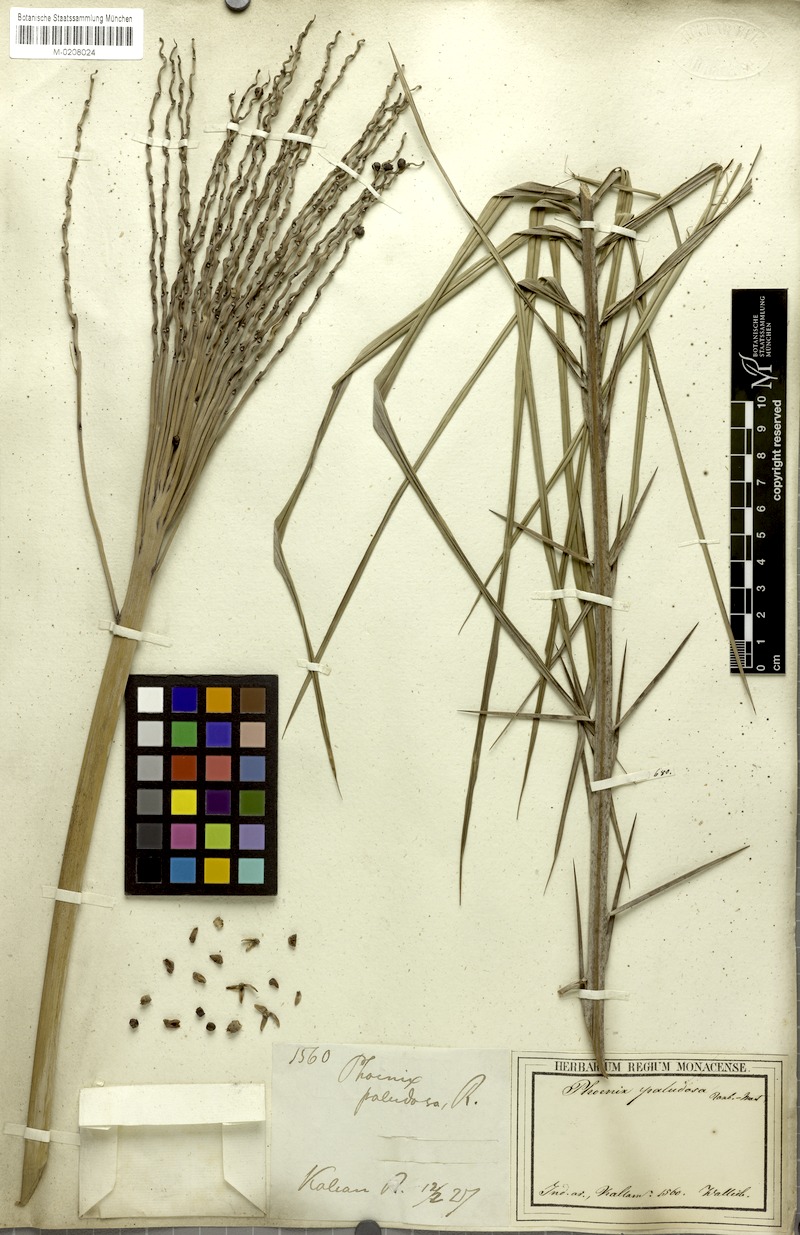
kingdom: Plantae
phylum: Tracheophyta
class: Liliopsida
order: Arecales
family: Arecaceae
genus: Phoenix
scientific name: Phoenix paludosa
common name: Mangrove date palm
